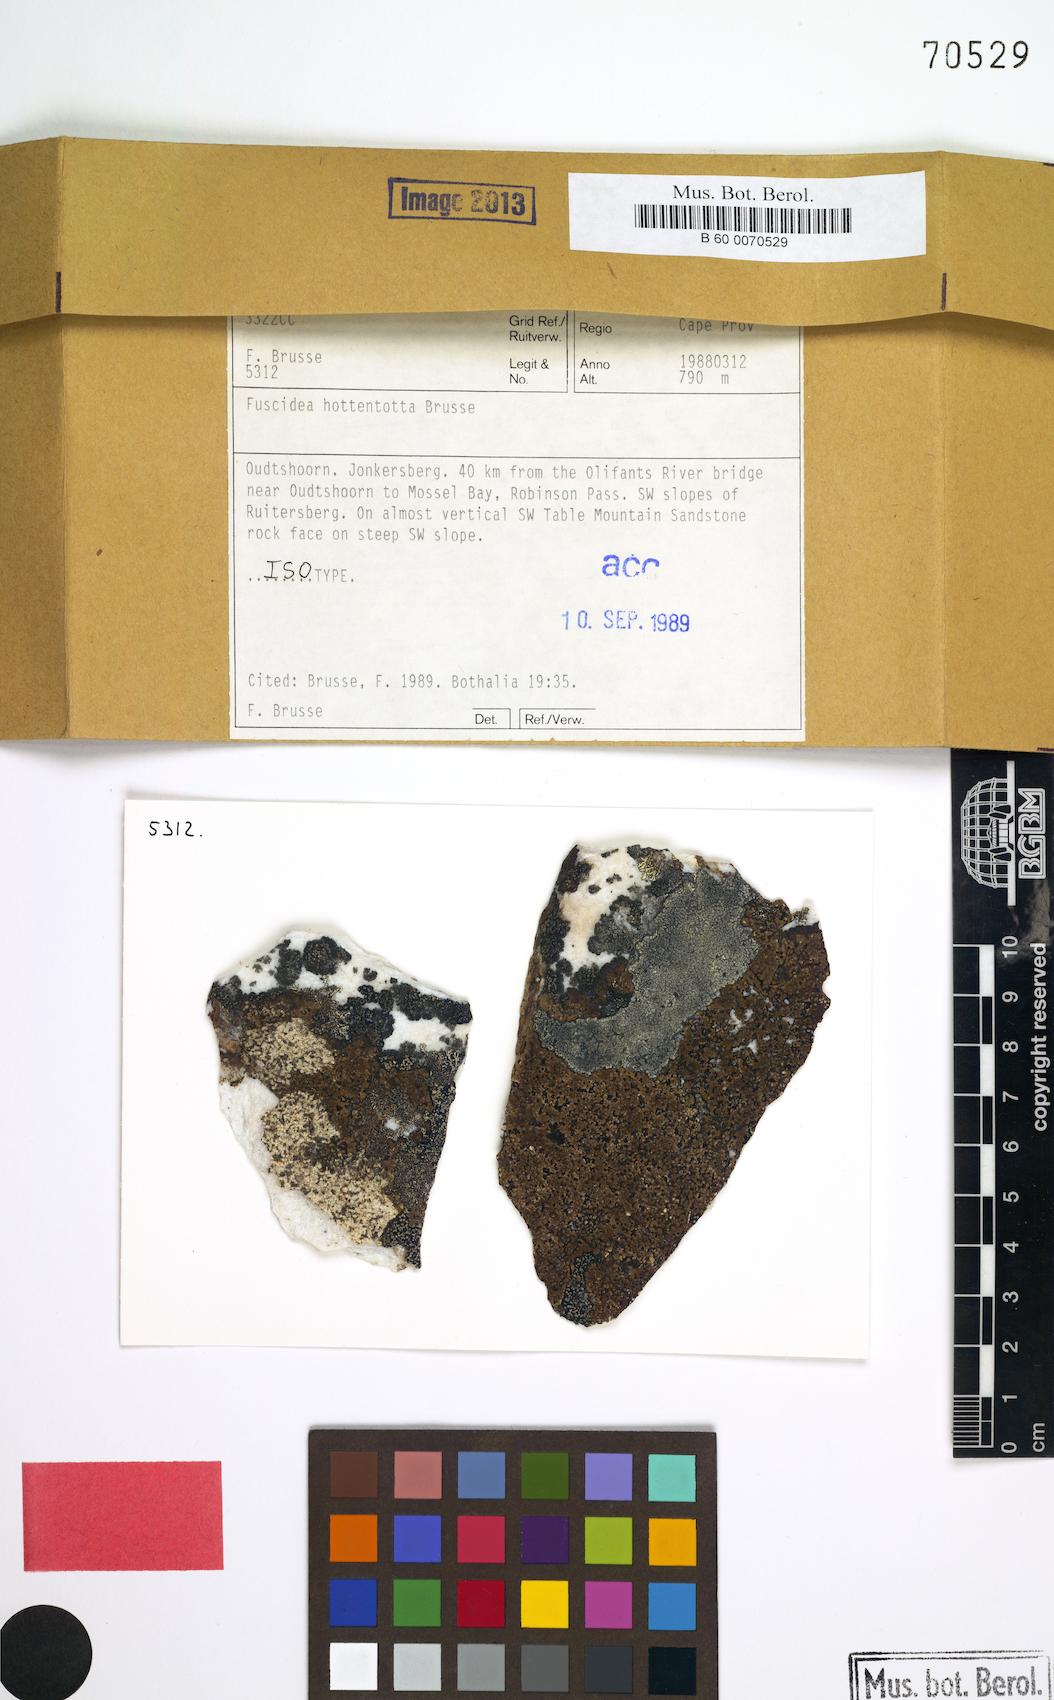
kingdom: Fungi
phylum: Ascomycota
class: Lecanoromycetes
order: Umbilicariales
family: Fuscideaceae
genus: Fuscidea
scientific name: Fuscidea
